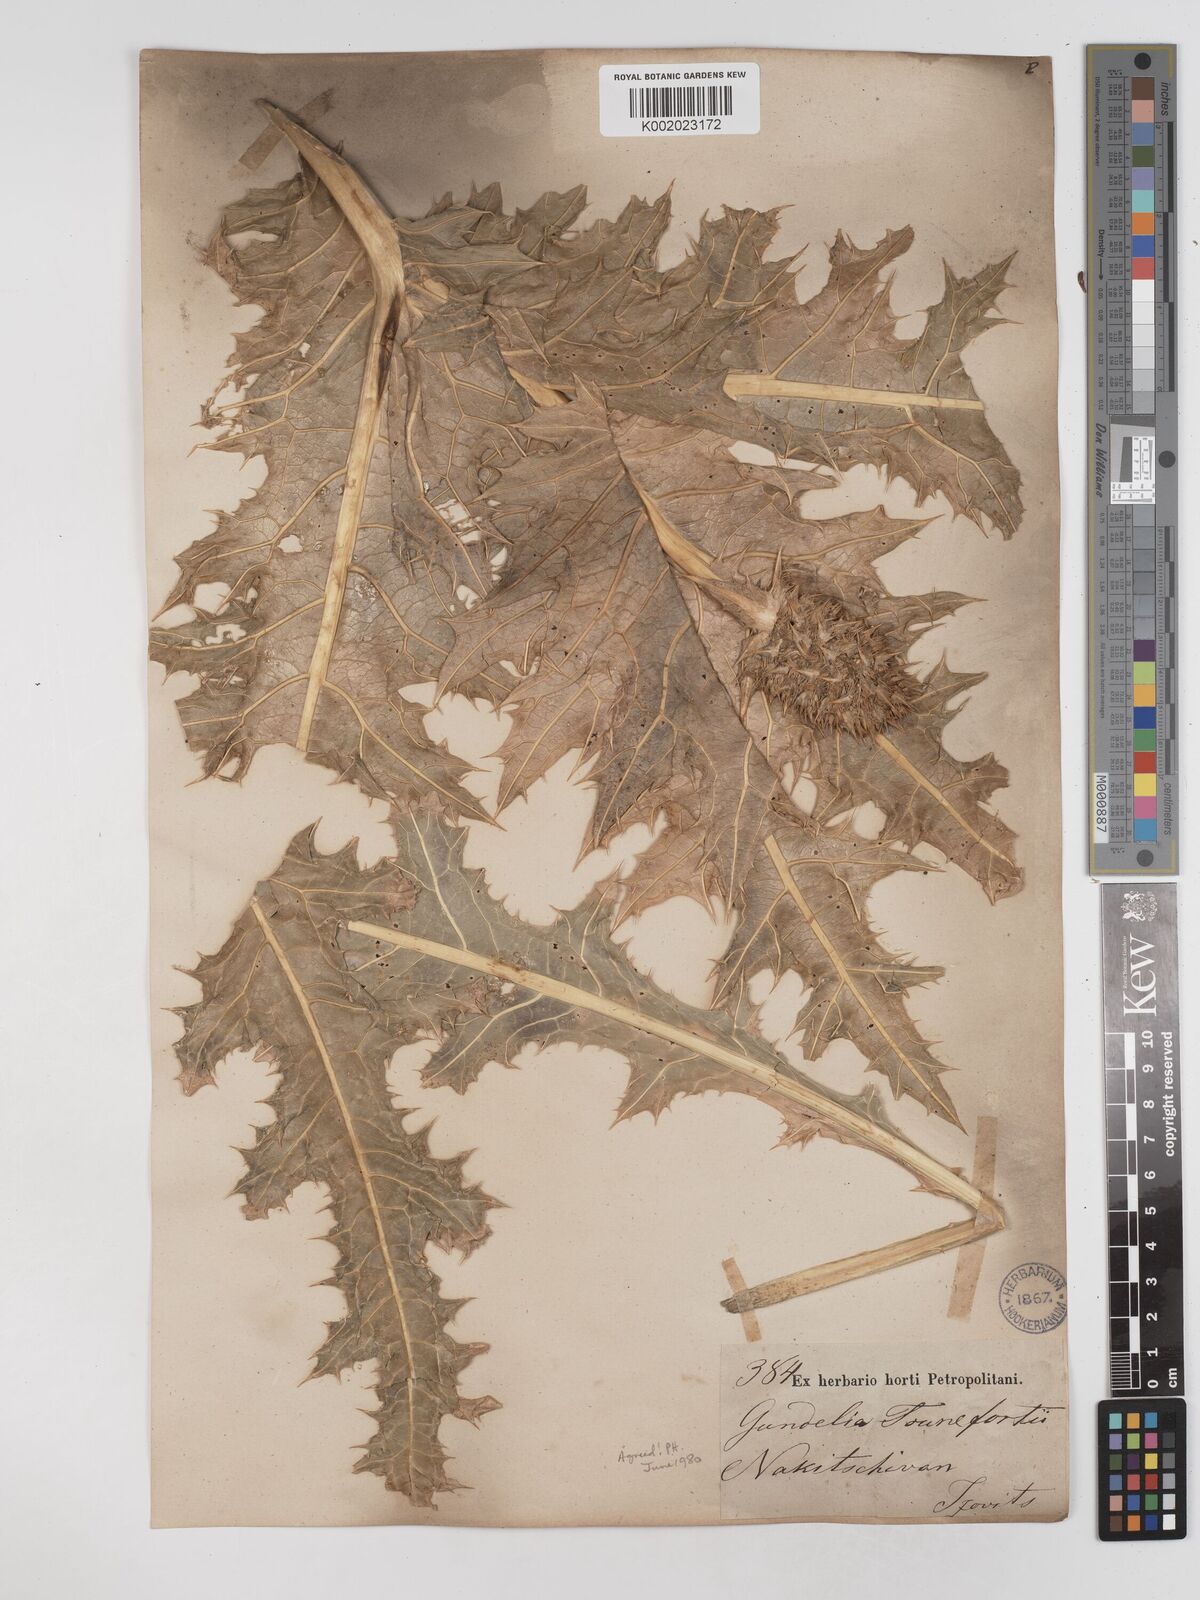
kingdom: Plantae
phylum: Tracheophyta
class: Magnoliopsida
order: Asterales
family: Asteraceae
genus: Gundelia
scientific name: Gundelia tournefortii
